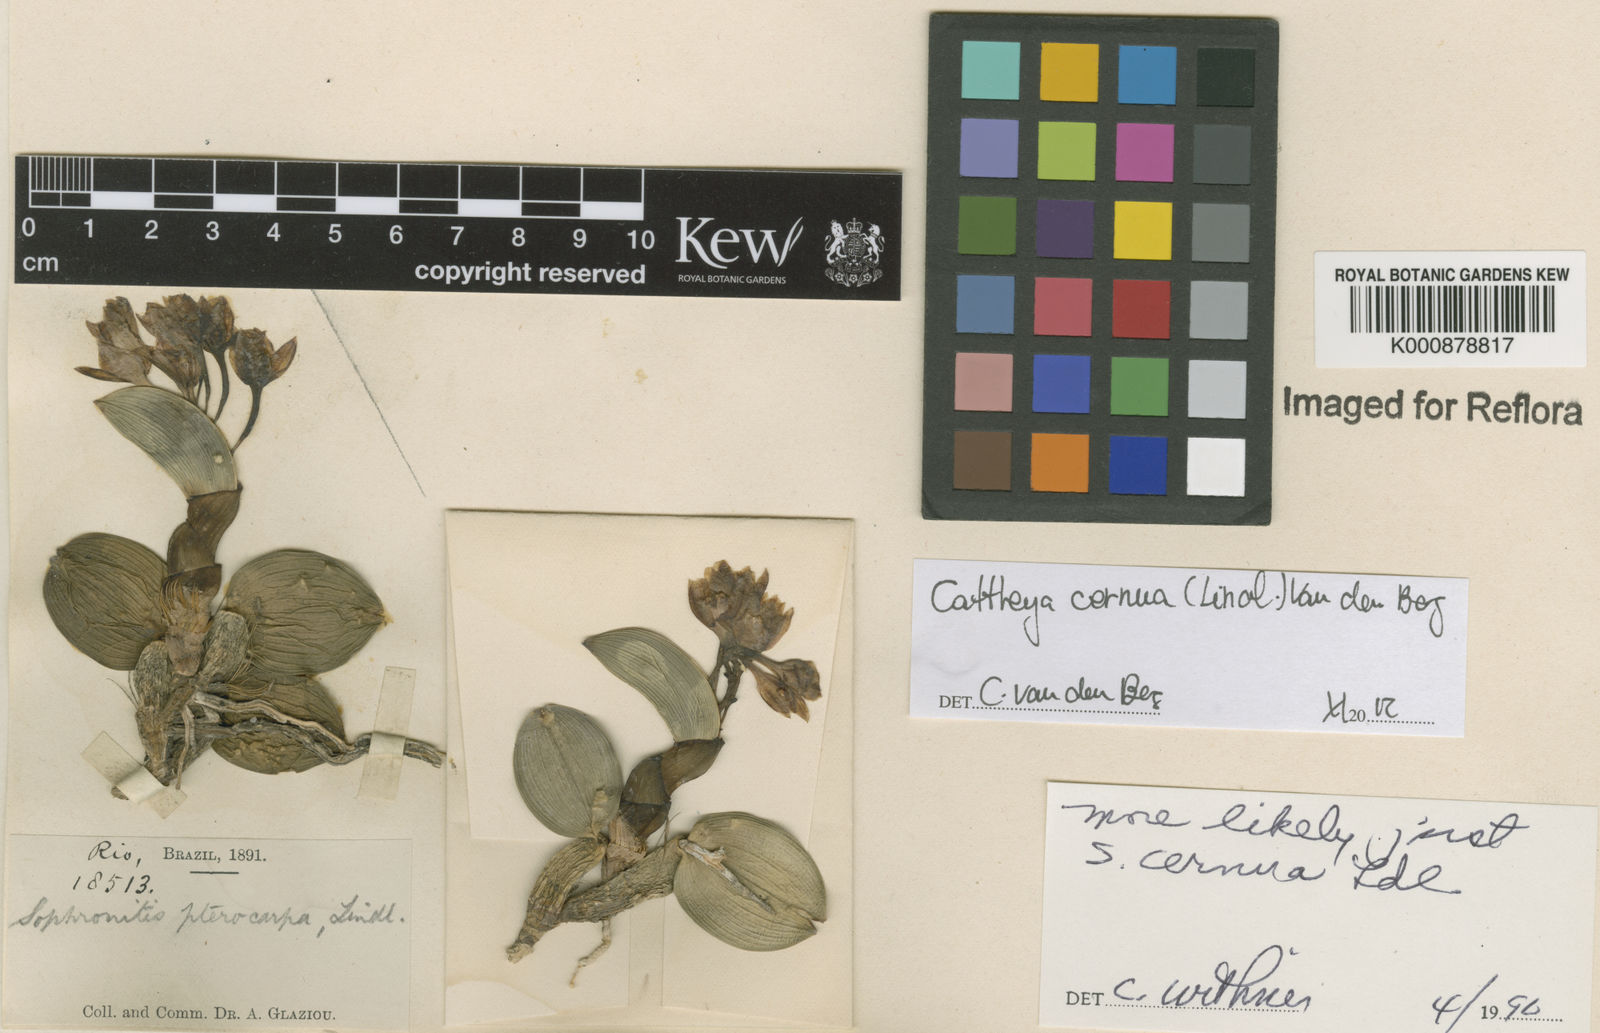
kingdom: Plantae
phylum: Tracheophyta
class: Liliopsida
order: Asparagales
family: Orchidaceae
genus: Cattleya
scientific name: Cattleya
